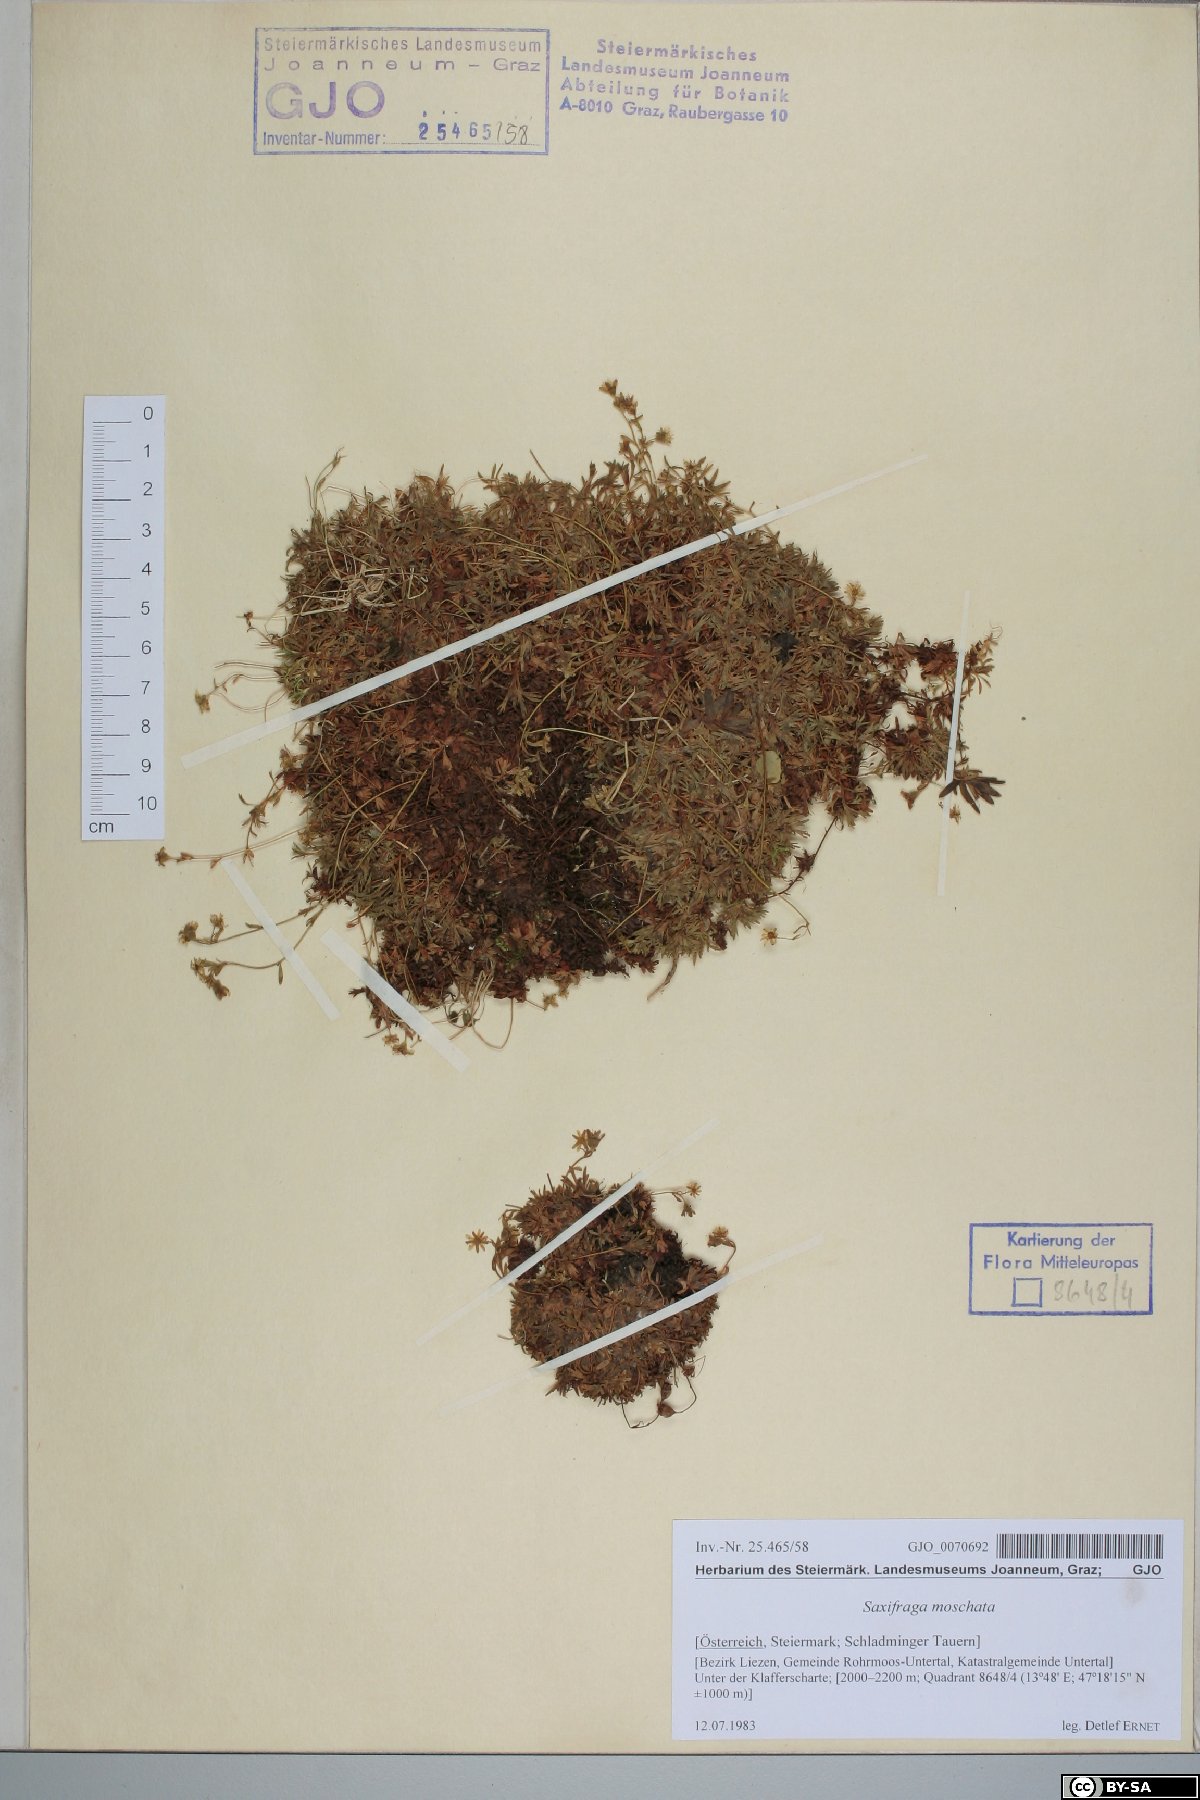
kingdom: Plantae
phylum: Tracheophyta
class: Magnoliopsida
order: Saxifragales
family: Saxifragaceae
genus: Saxifraga
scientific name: Saxifraga moschata
